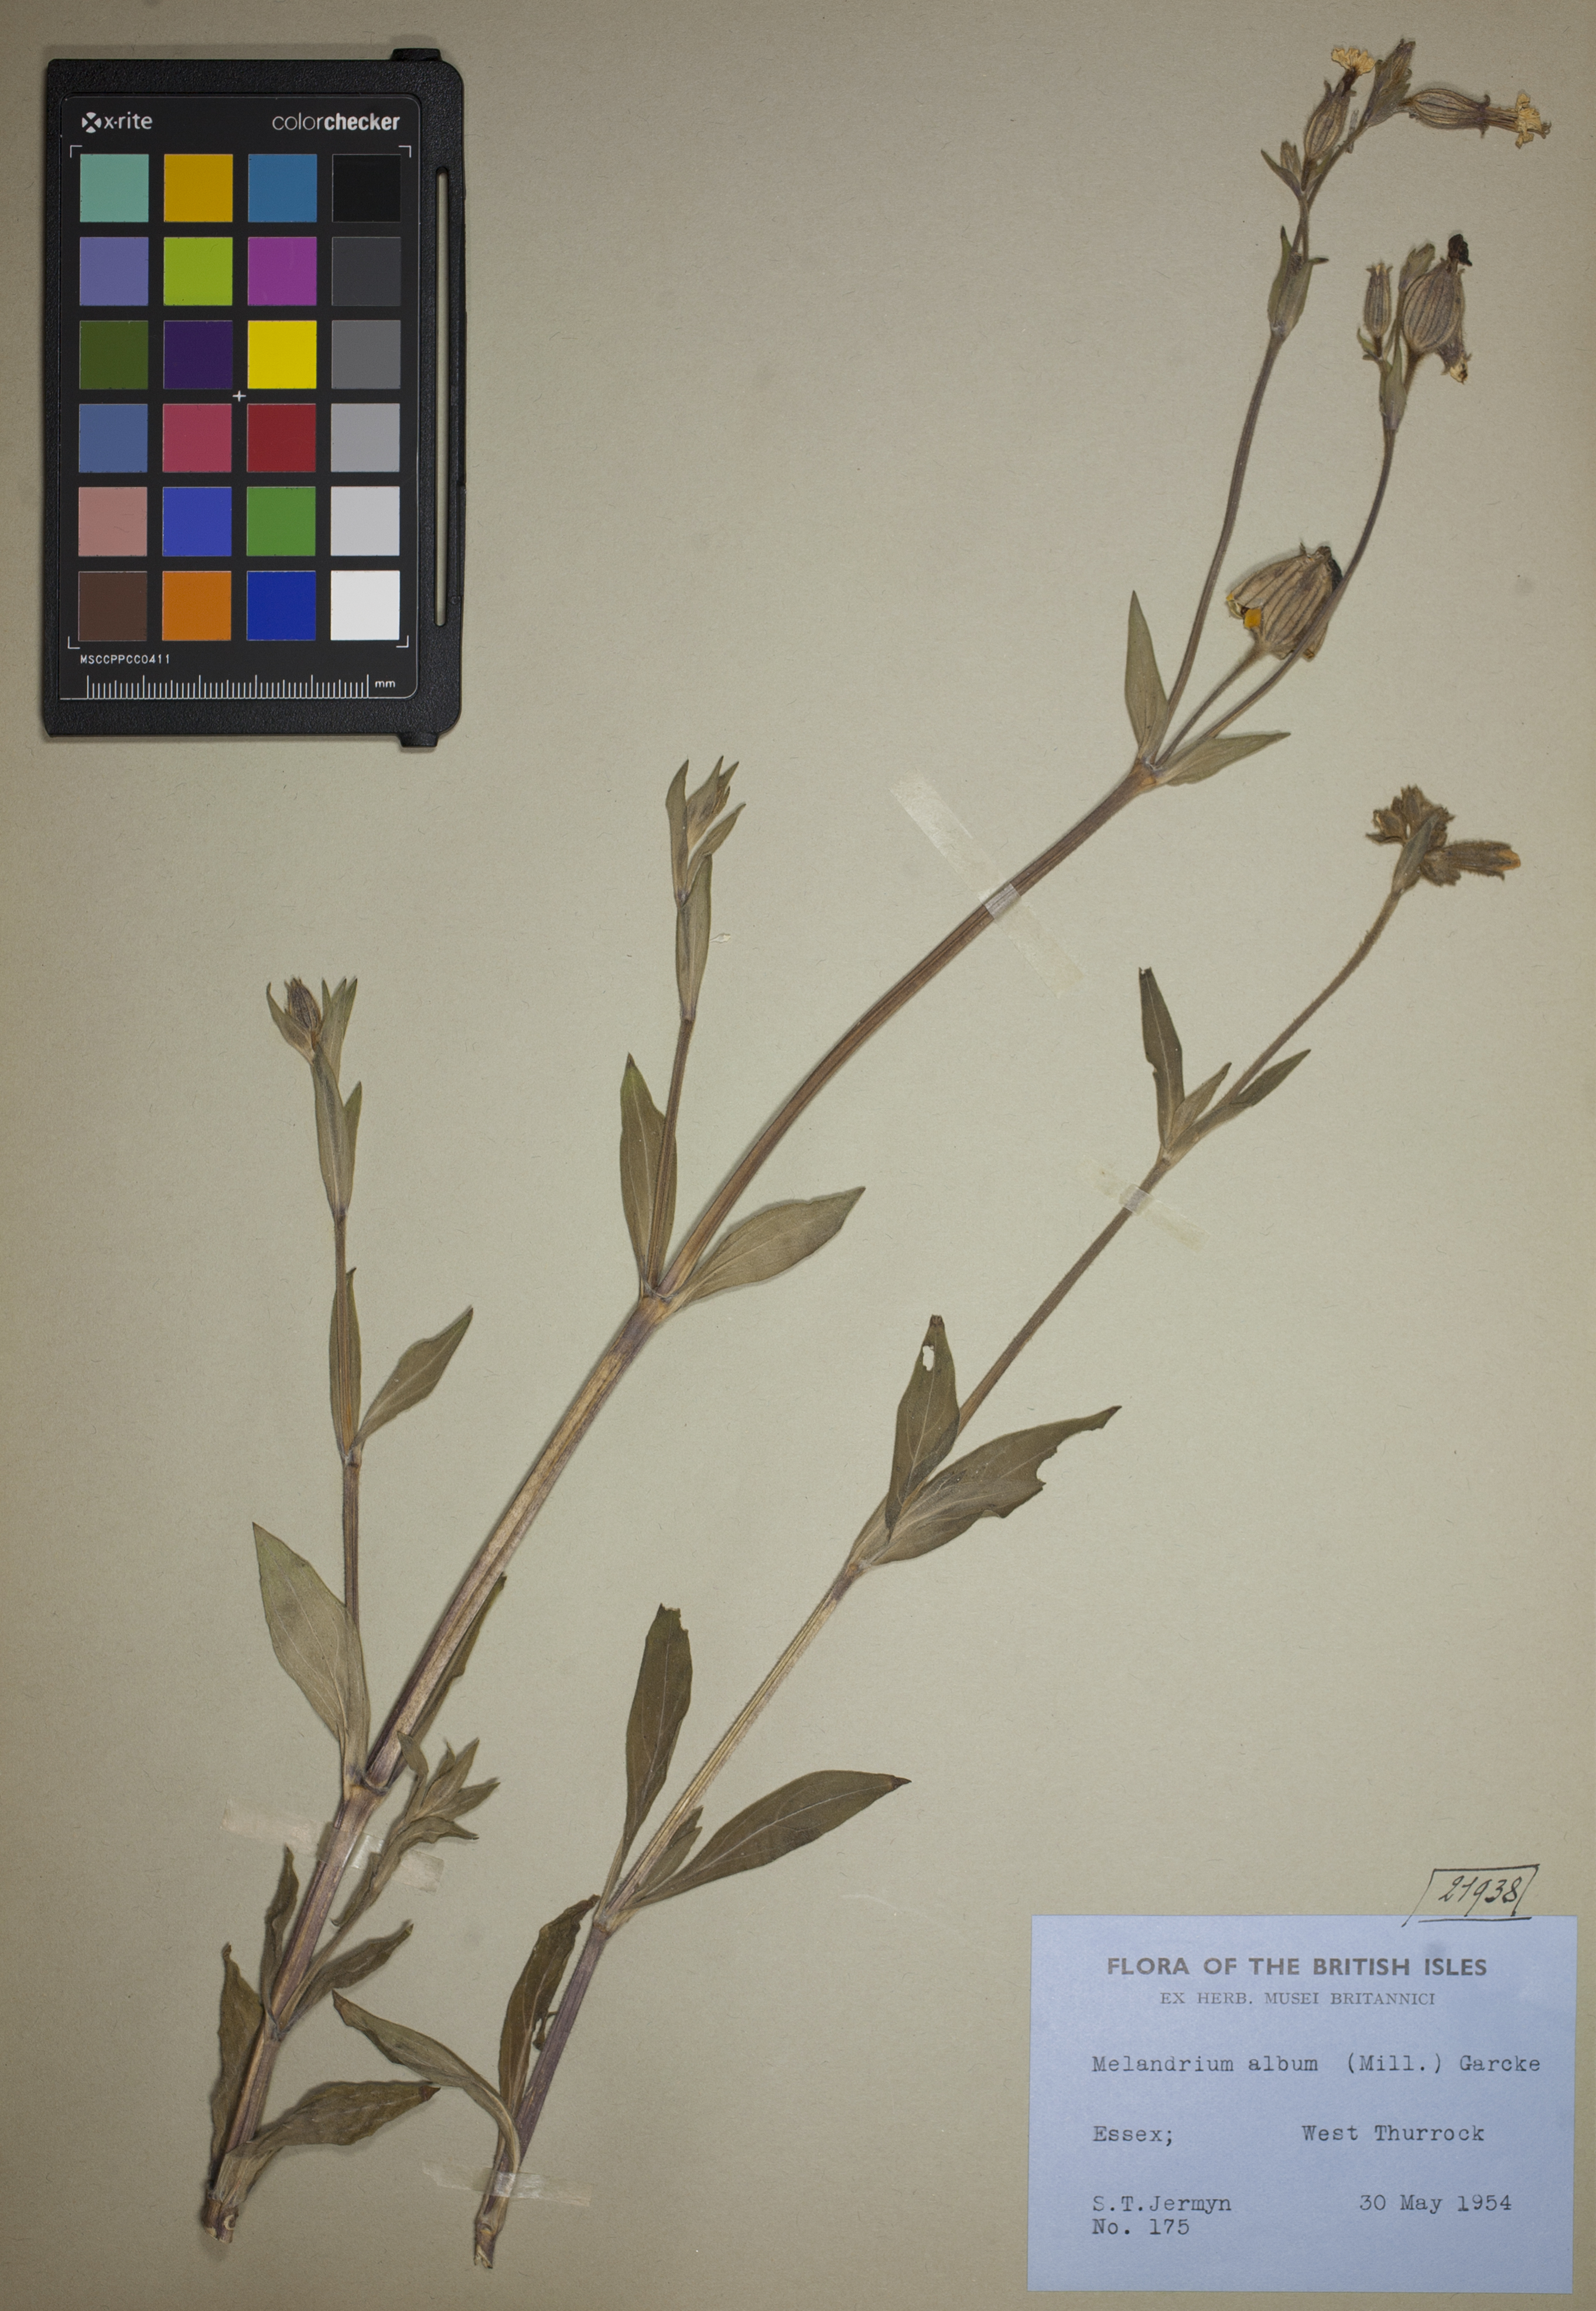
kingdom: Plantae
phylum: Tracheophyta
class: Magnoliopsida
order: Caryophyllales
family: Caryophyllaceae
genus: Silene
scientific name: Silene latifolia
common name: White campion
